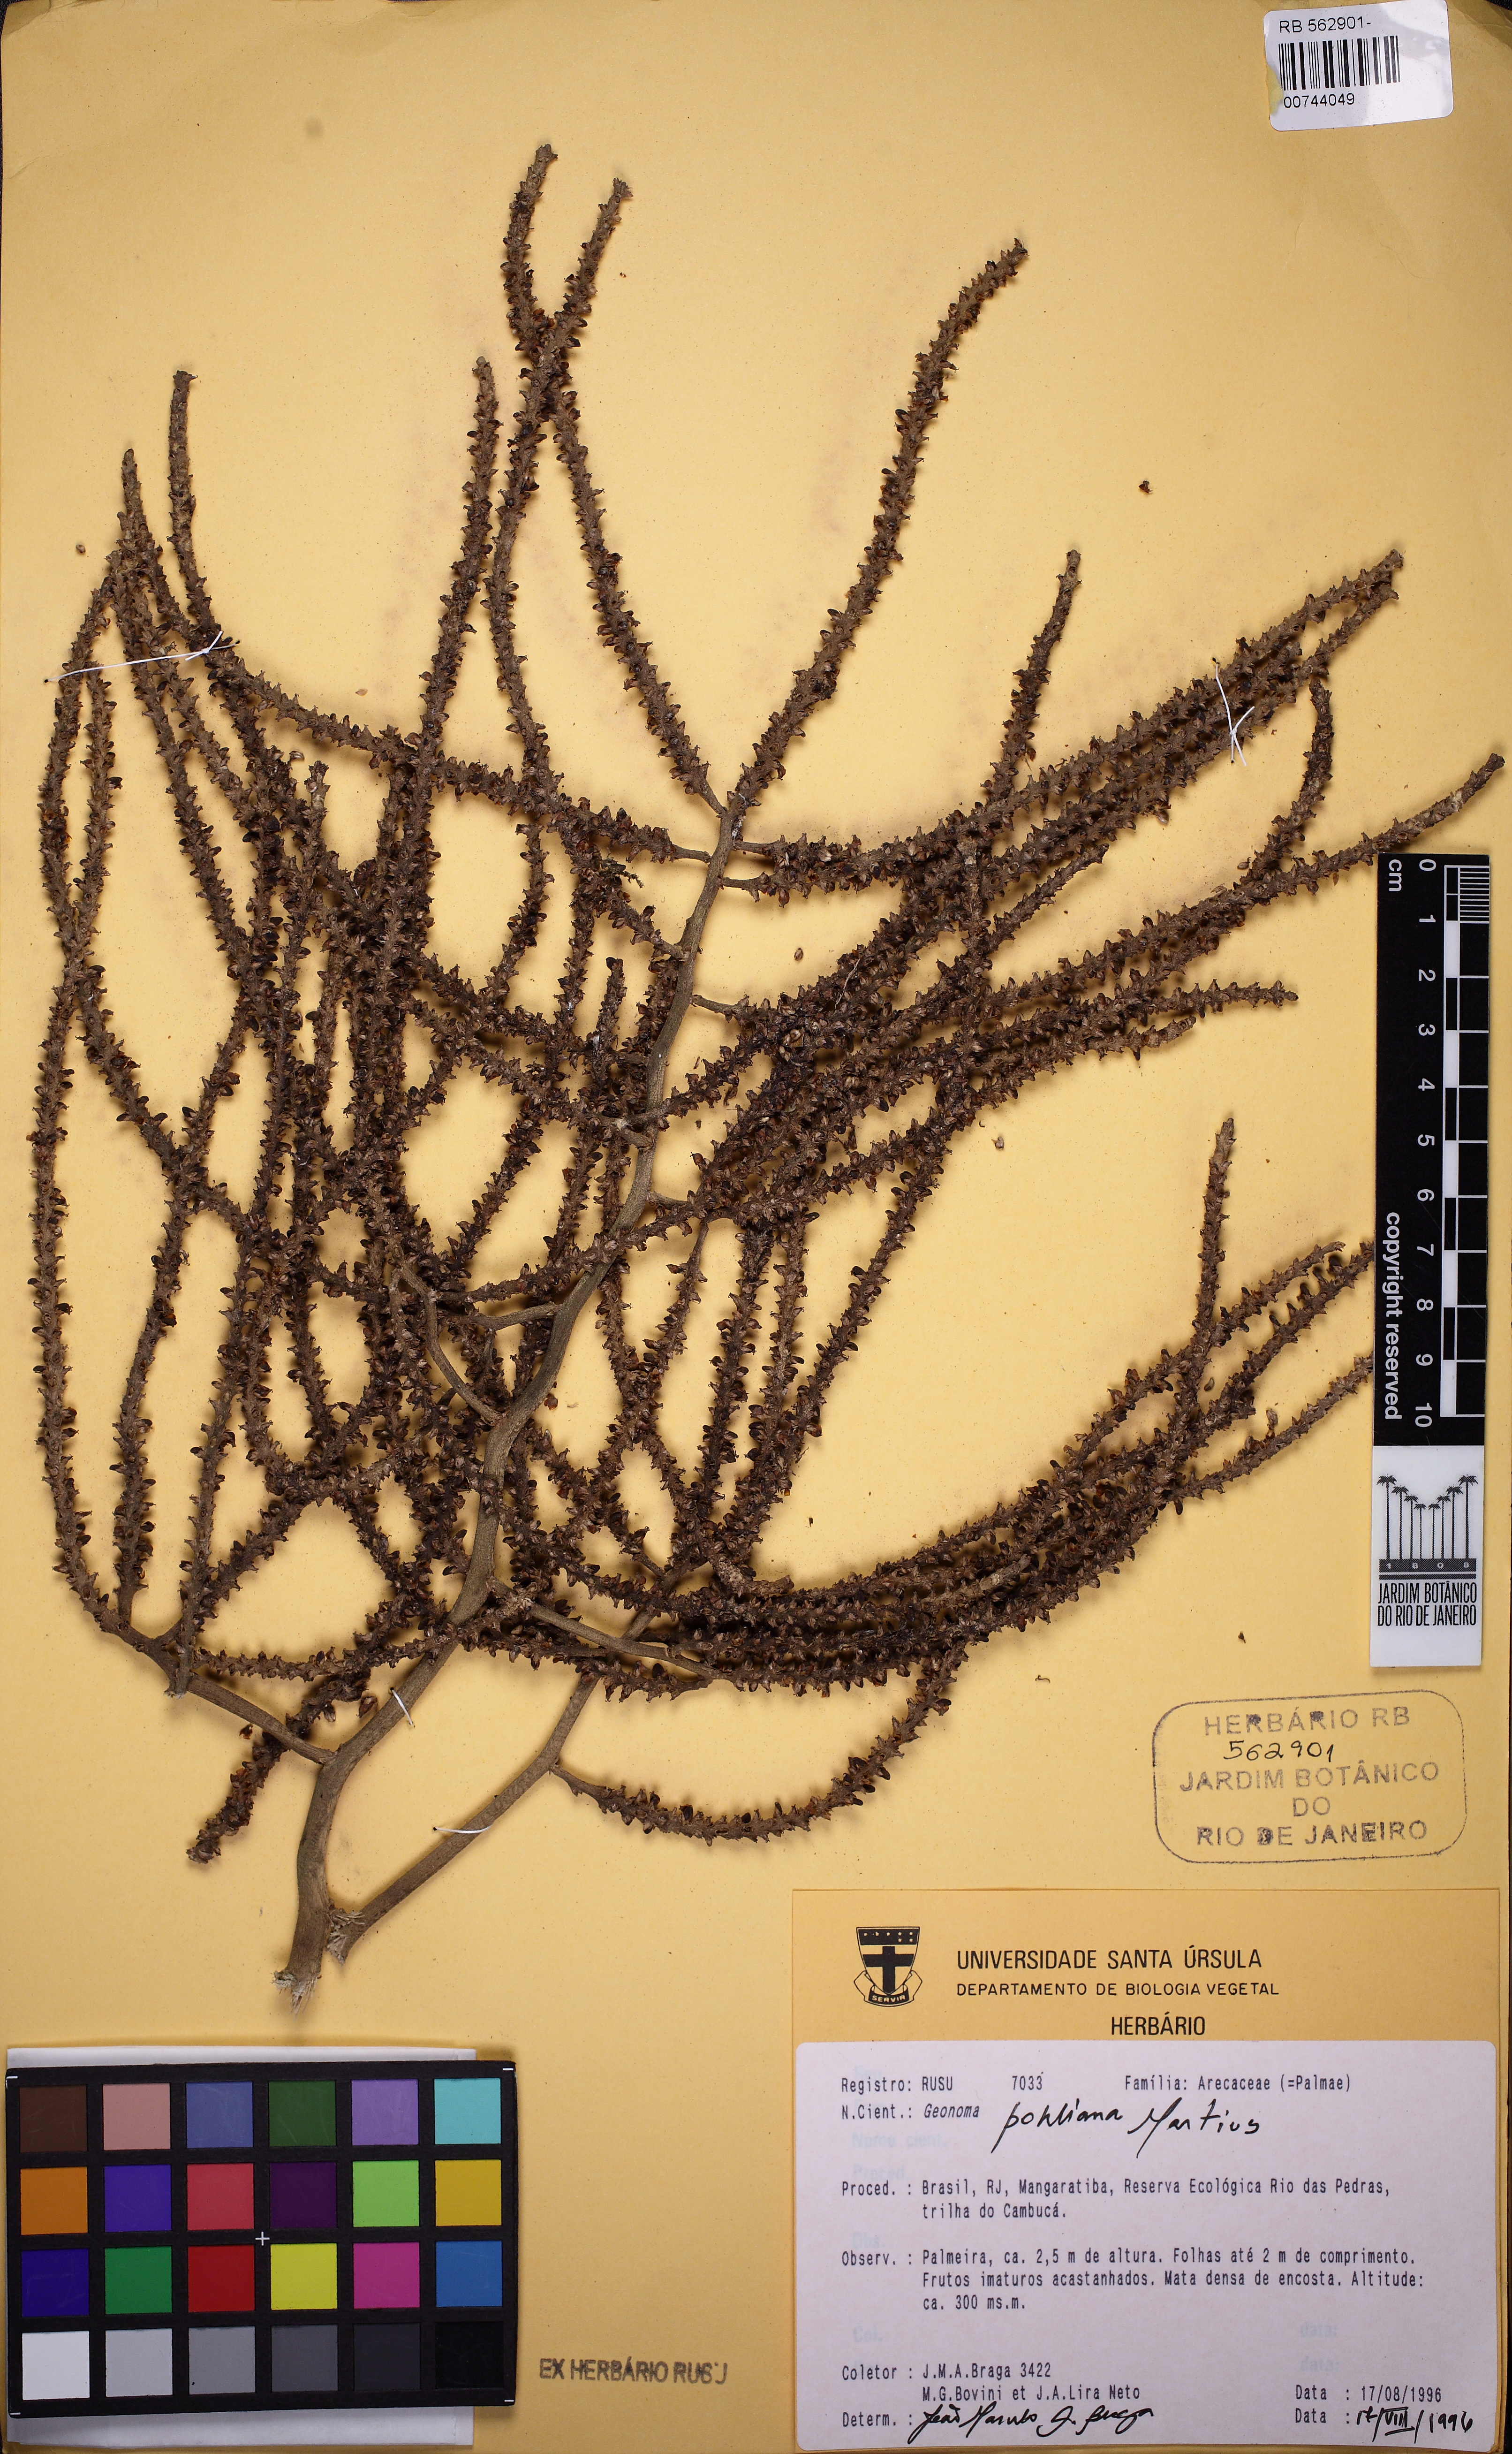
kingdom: Plantae
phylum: Tracheophyta
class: Liliopsida
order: Arecales
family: Arecaceae
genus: Geonoma
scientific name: Geonoma pohliana
